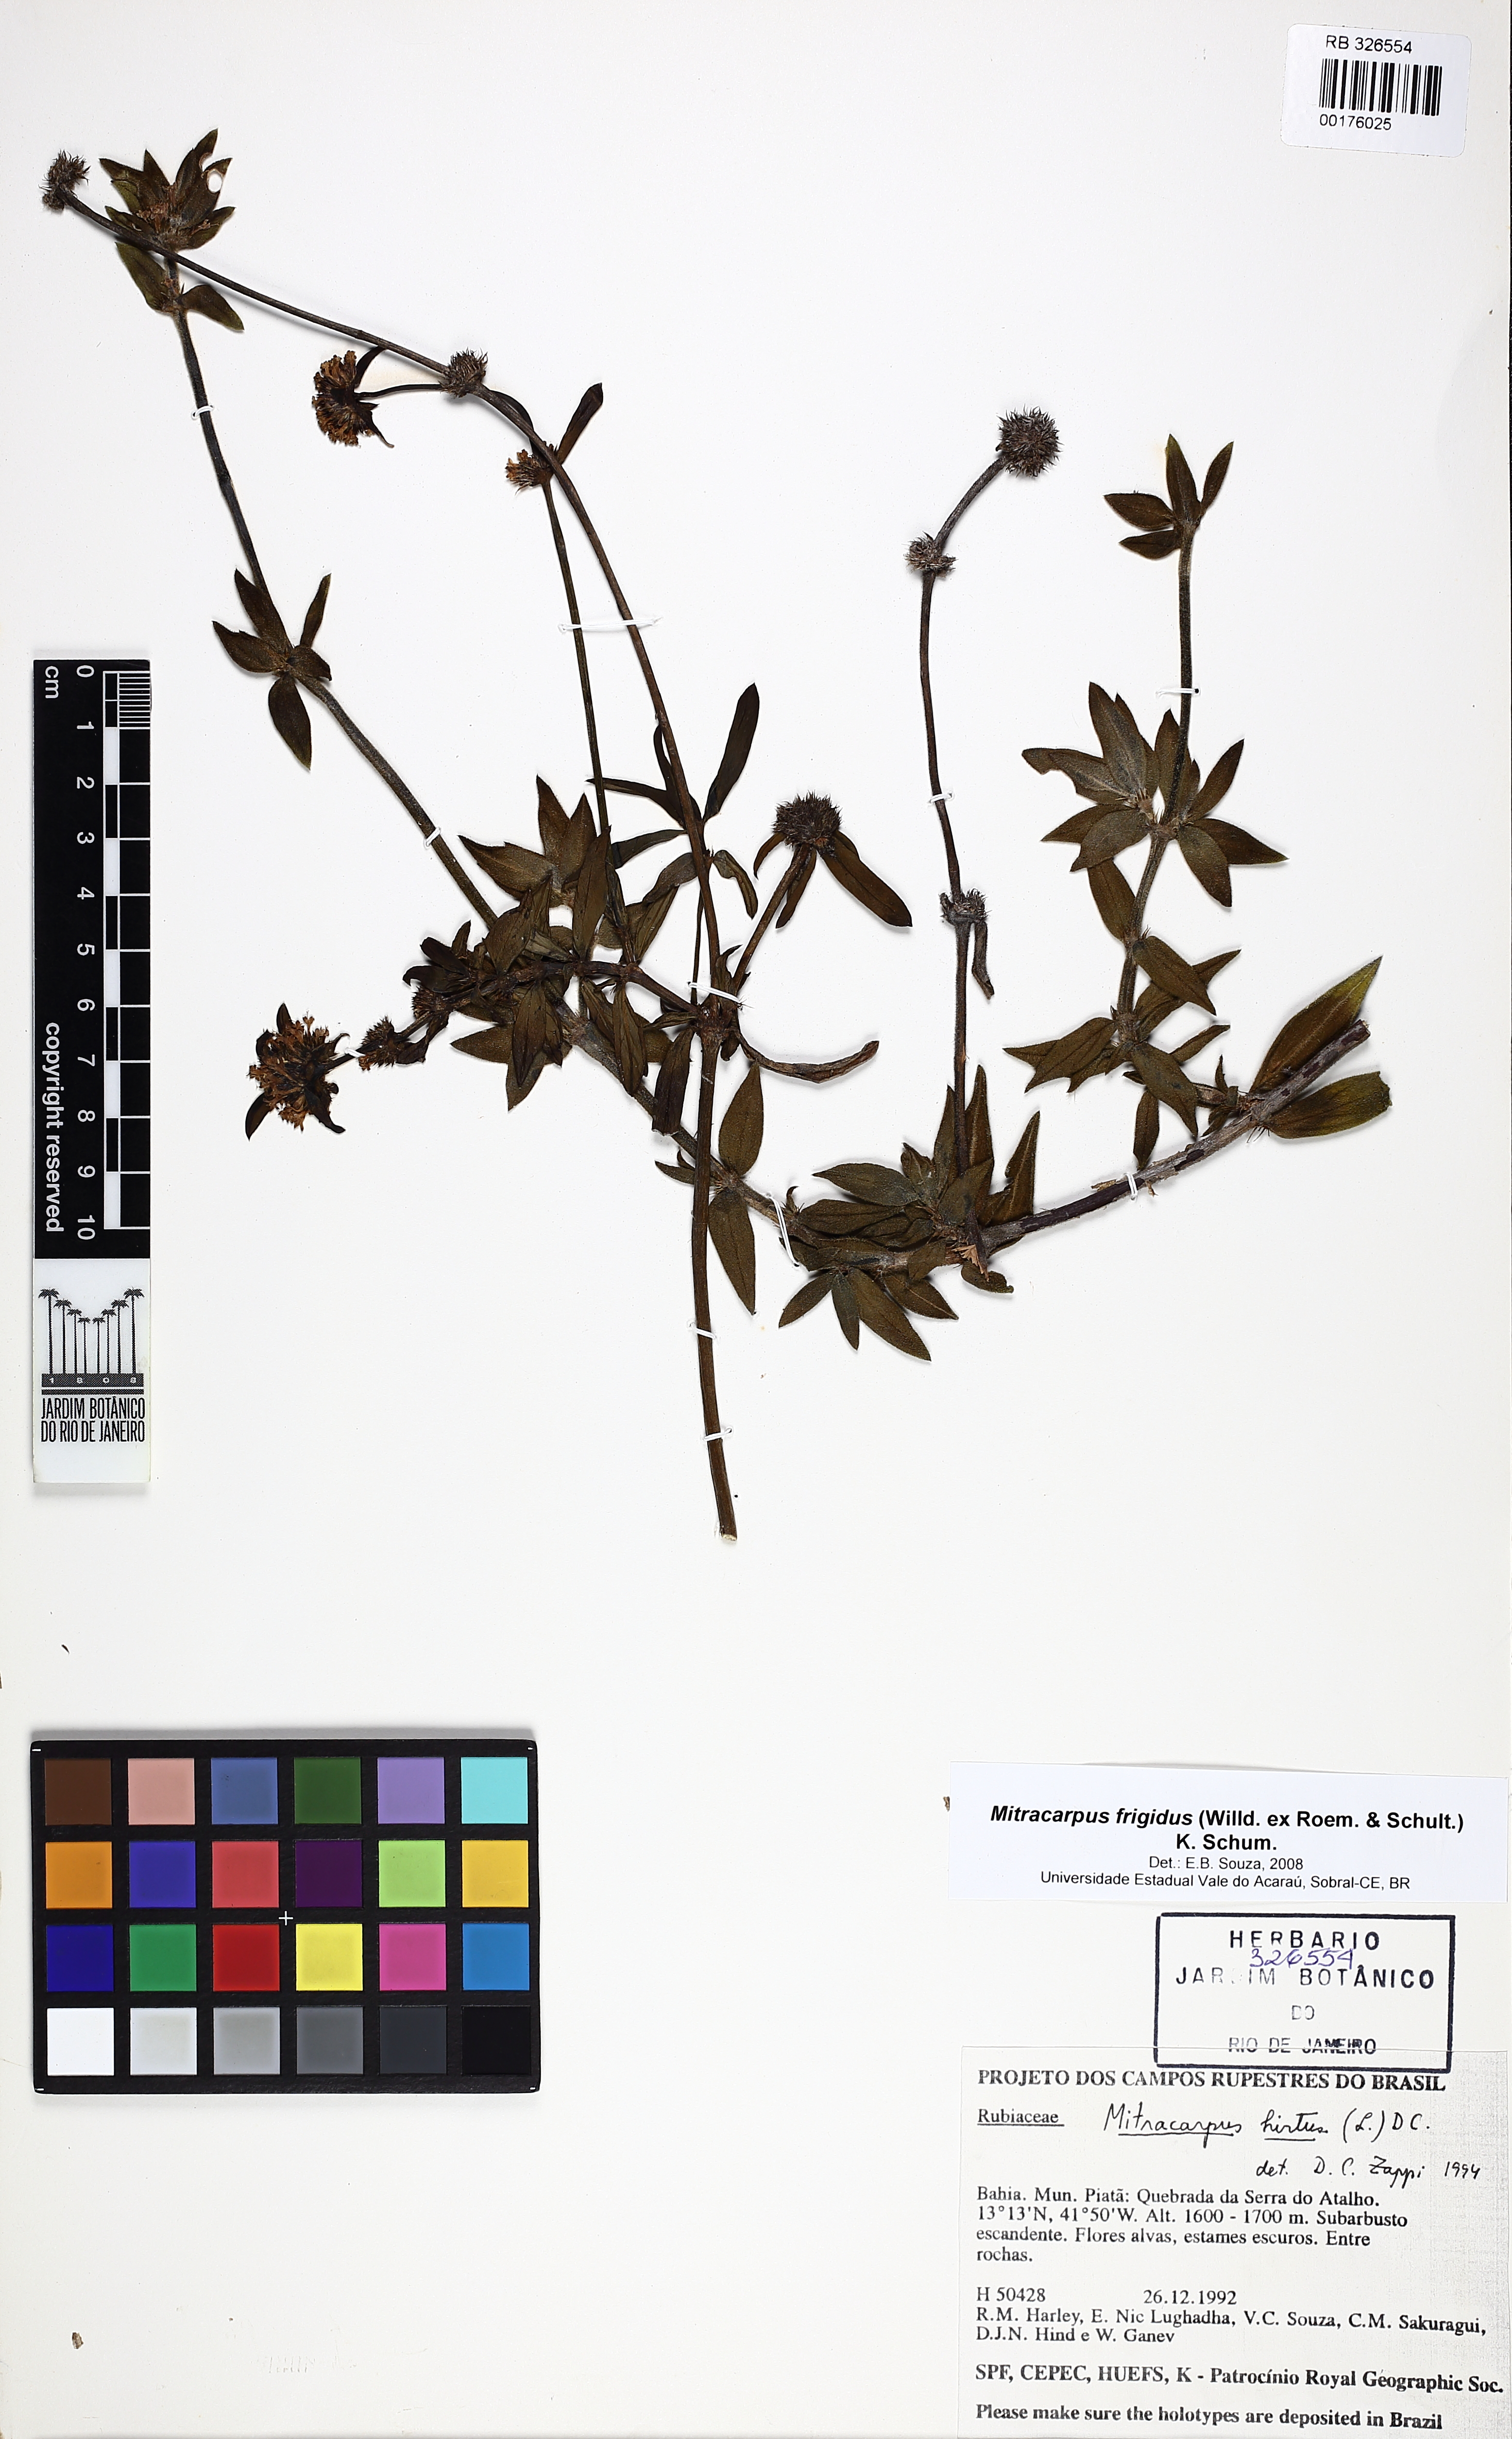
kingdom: Plantae
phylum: Tracheophyta
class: Magnoliopsida
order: Gentianales
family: Rubiaceae
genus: Mitracarpus
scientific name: Mitracarpus frigidus
